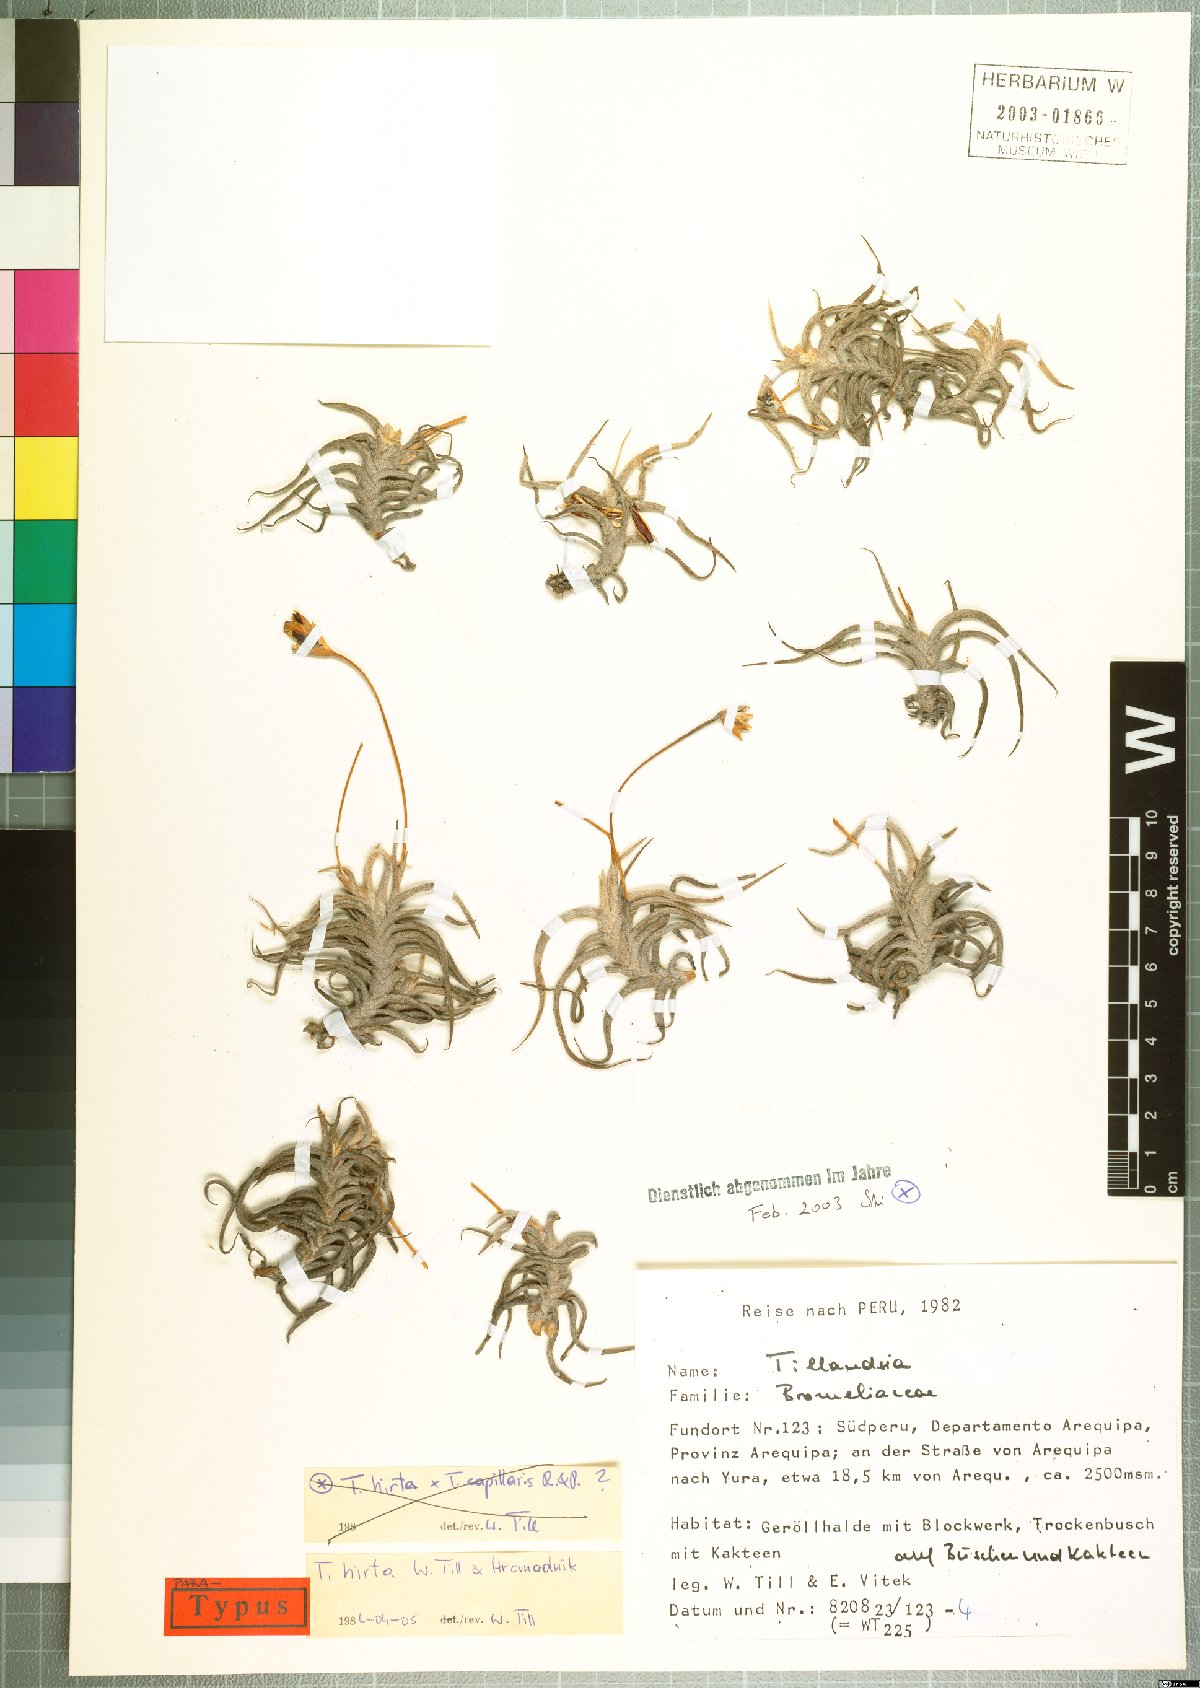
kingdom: Plantae
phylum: Tracheophyta
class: Liliopsida
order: Poales
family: Bromeliaceae
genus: Tillandsia
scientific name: Tillandsia hirta
